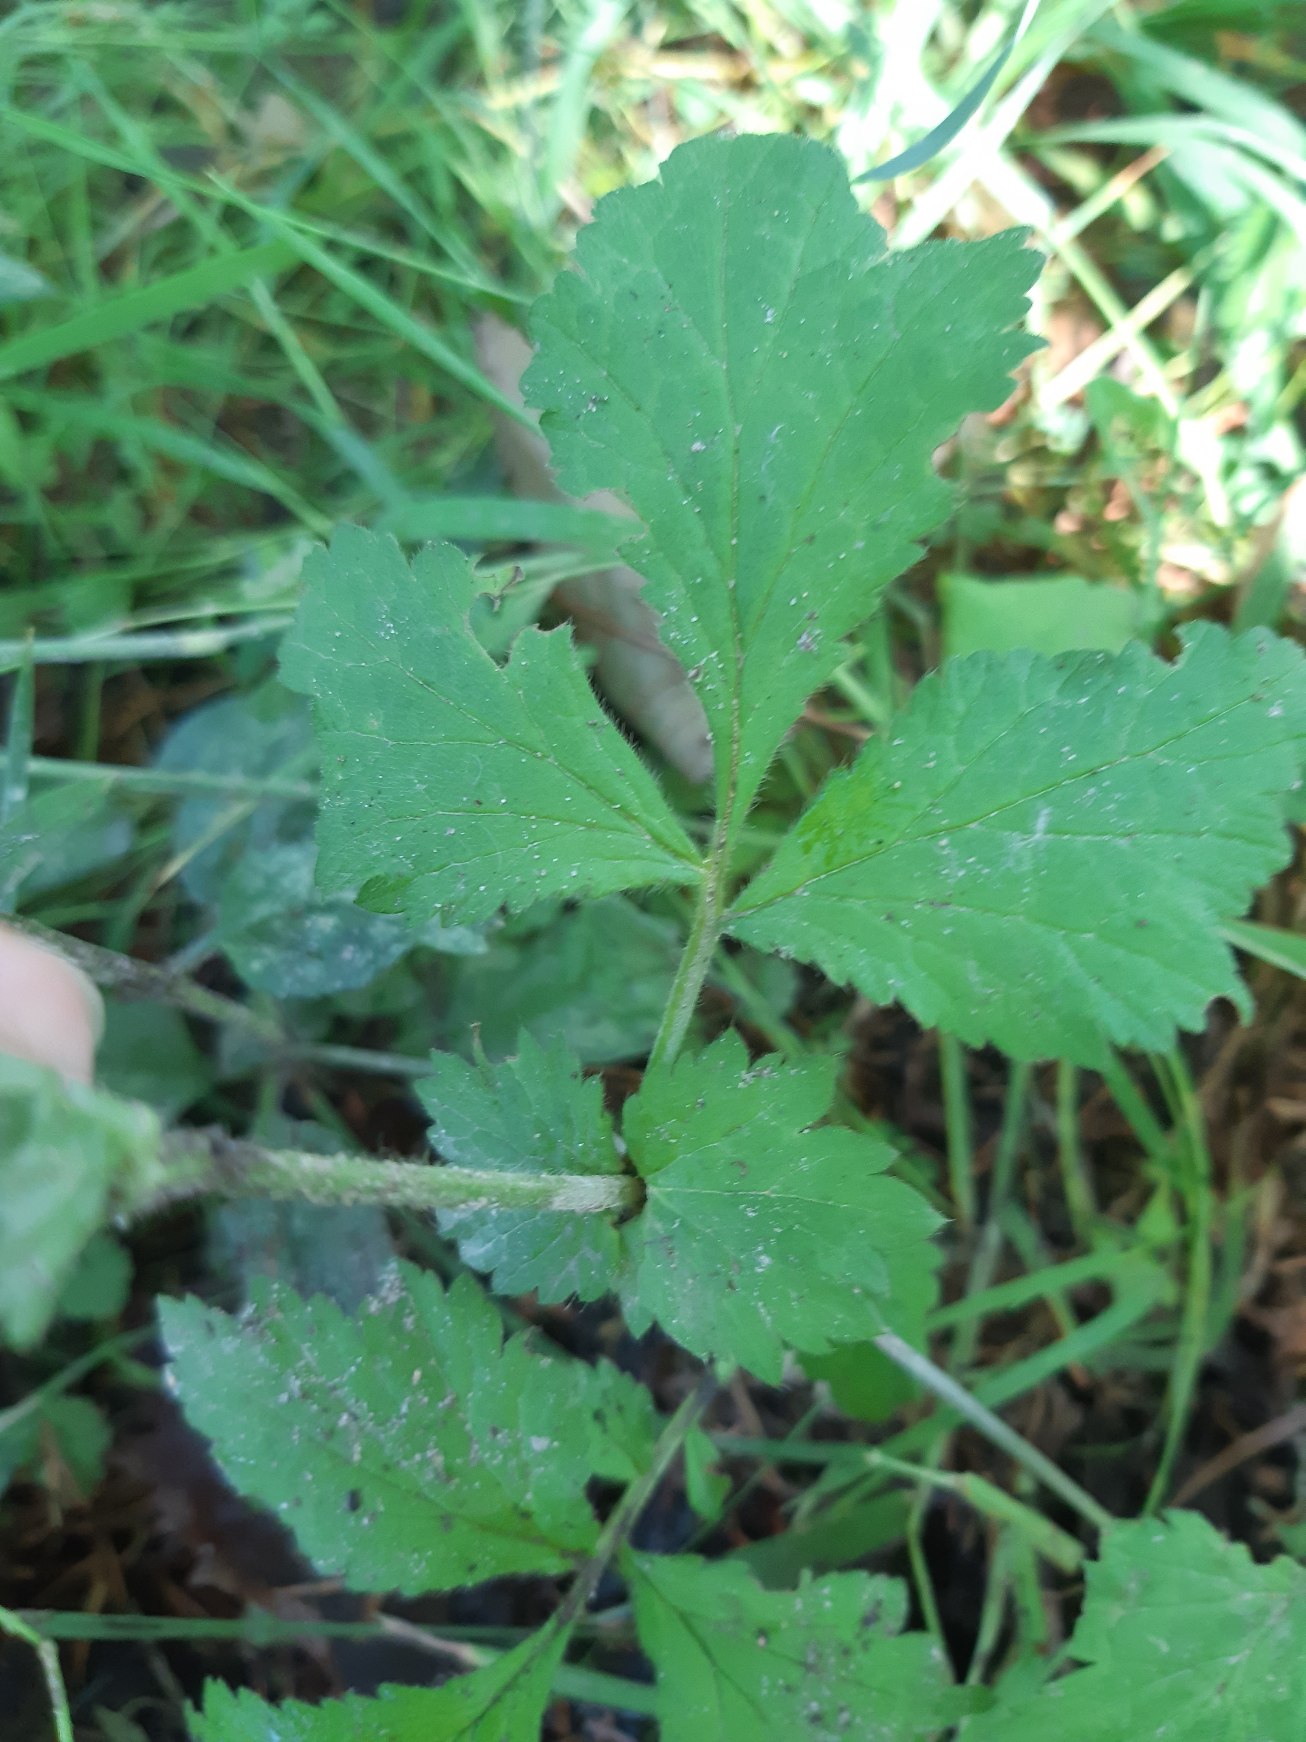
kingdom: Plantae
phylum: Tracheophyta
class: Magnoliopsida
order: Rosales
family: Rosaceae
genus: Geum
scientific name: Geum urbanum
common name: Feber-nellikerod
